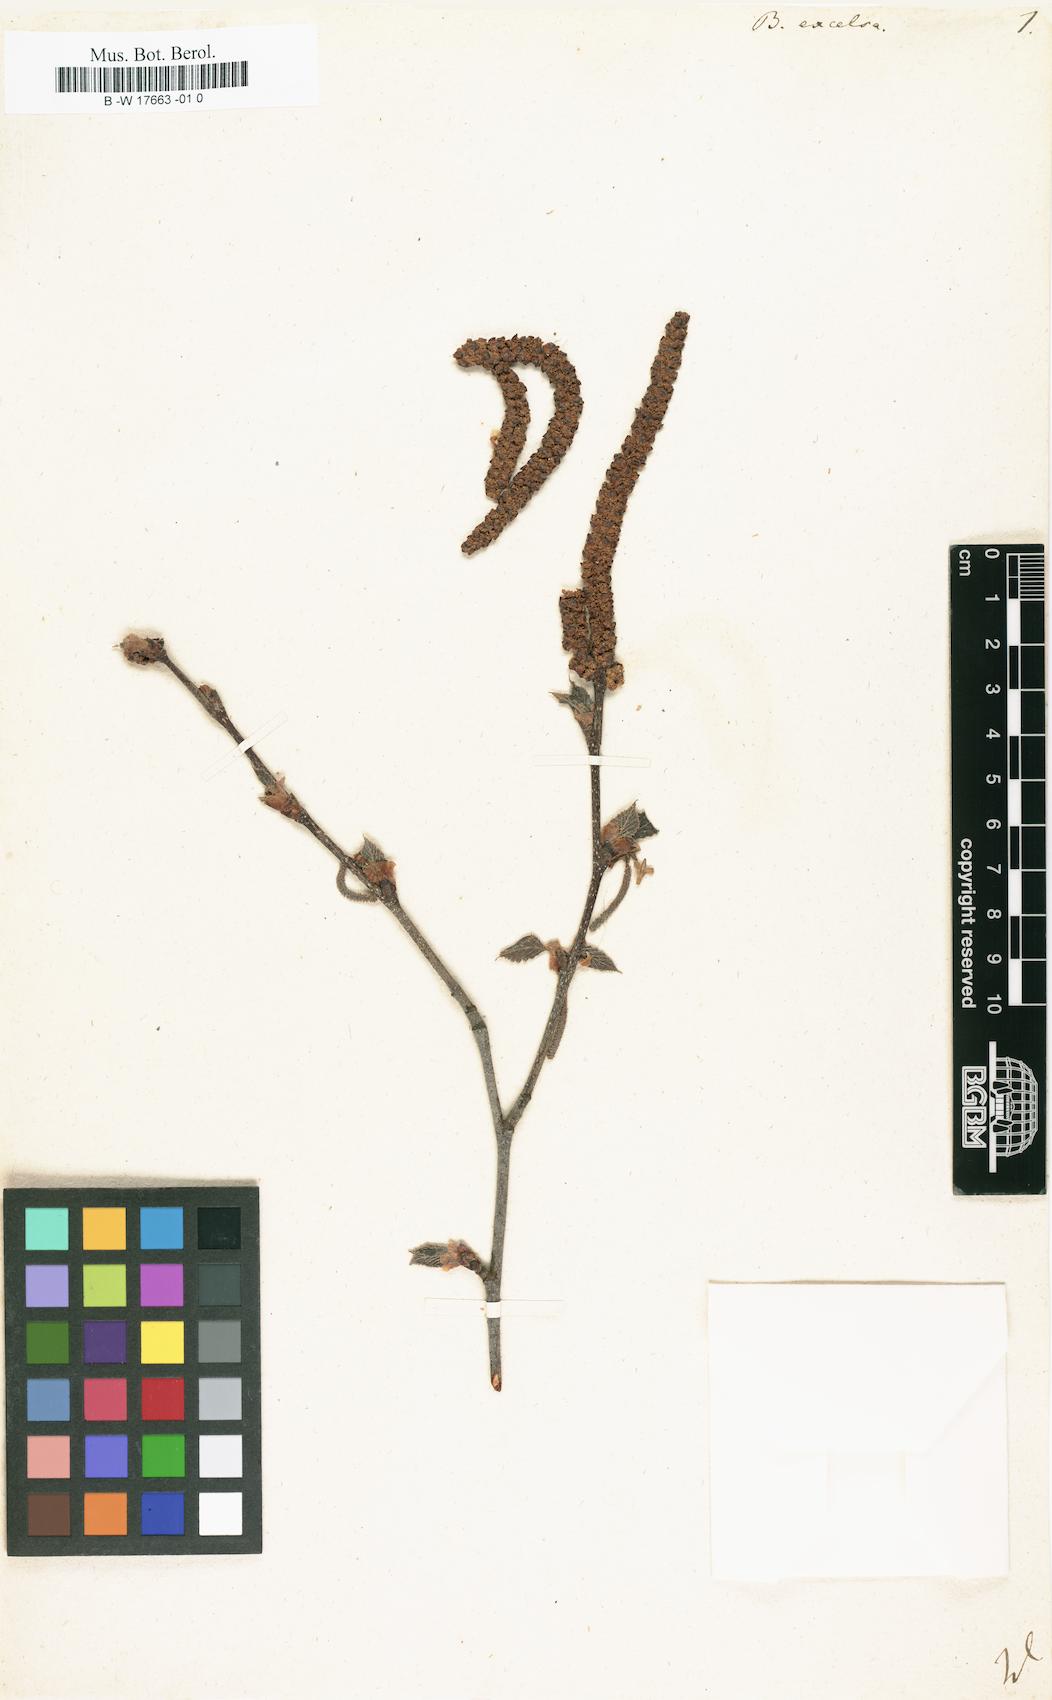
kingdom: Plantae
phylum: Tracheophyta
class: Magnoliopsida
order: Fagales
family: Betulaceae
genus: Betula
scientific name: Betula papyrifera
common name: Paper birch
